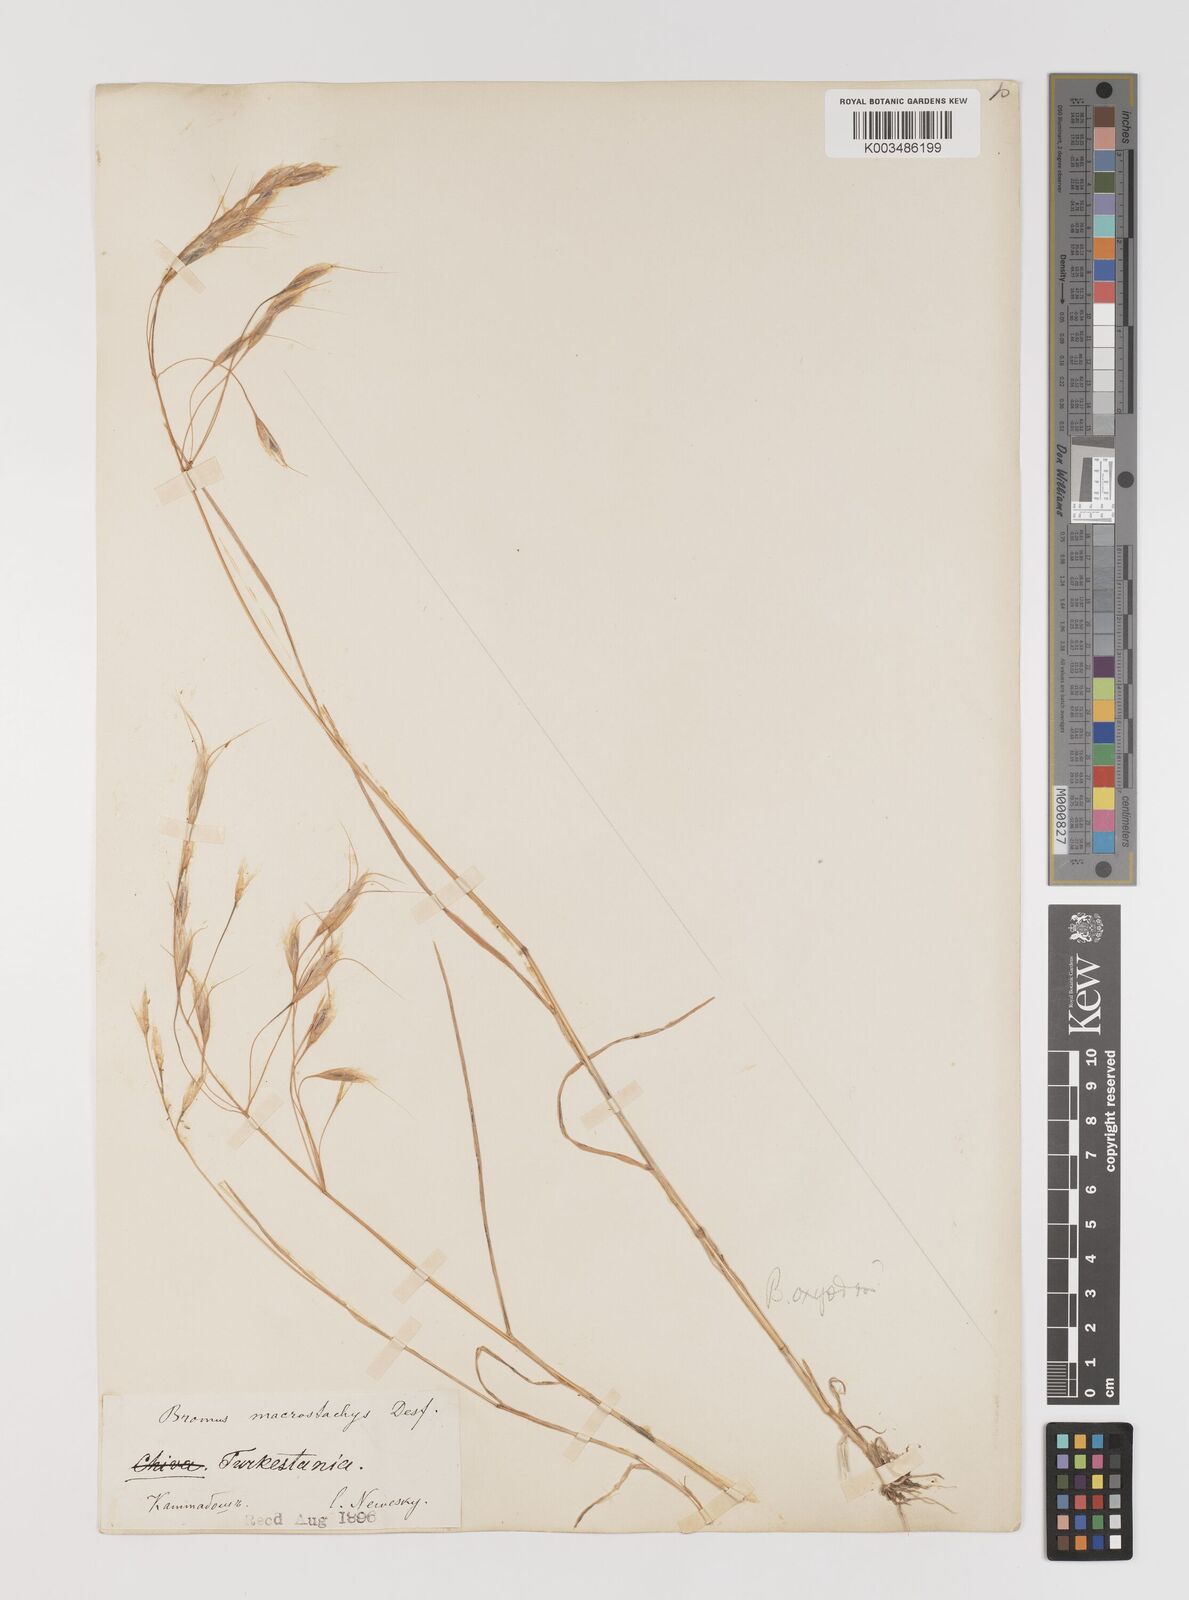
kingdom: Plantae
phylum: Tracheophyta
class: Liliopsida
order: Poales
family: Poaceae
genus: Bromus
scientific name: Bromus oxyodon
